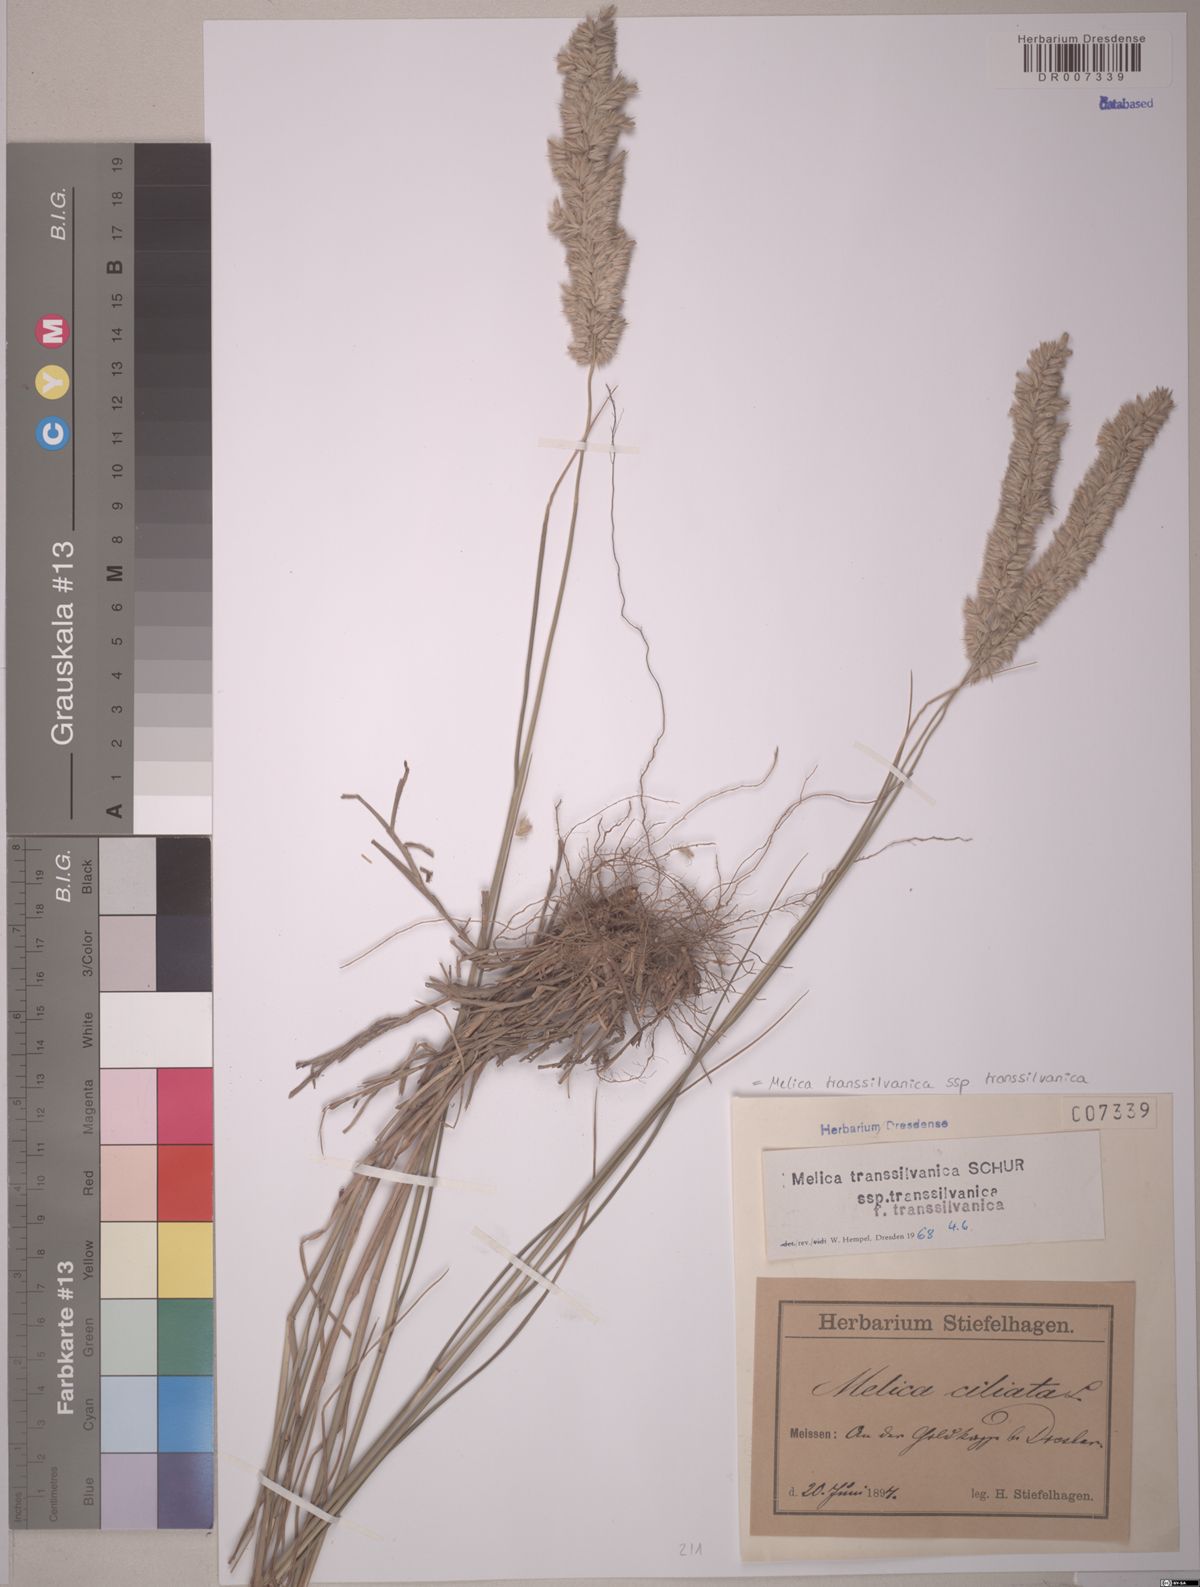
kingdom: Plantae
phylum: Tracheophyta
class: Liliopsida
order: Poales
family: Poaceae
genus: Melica
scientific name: Melica transsilvanica
